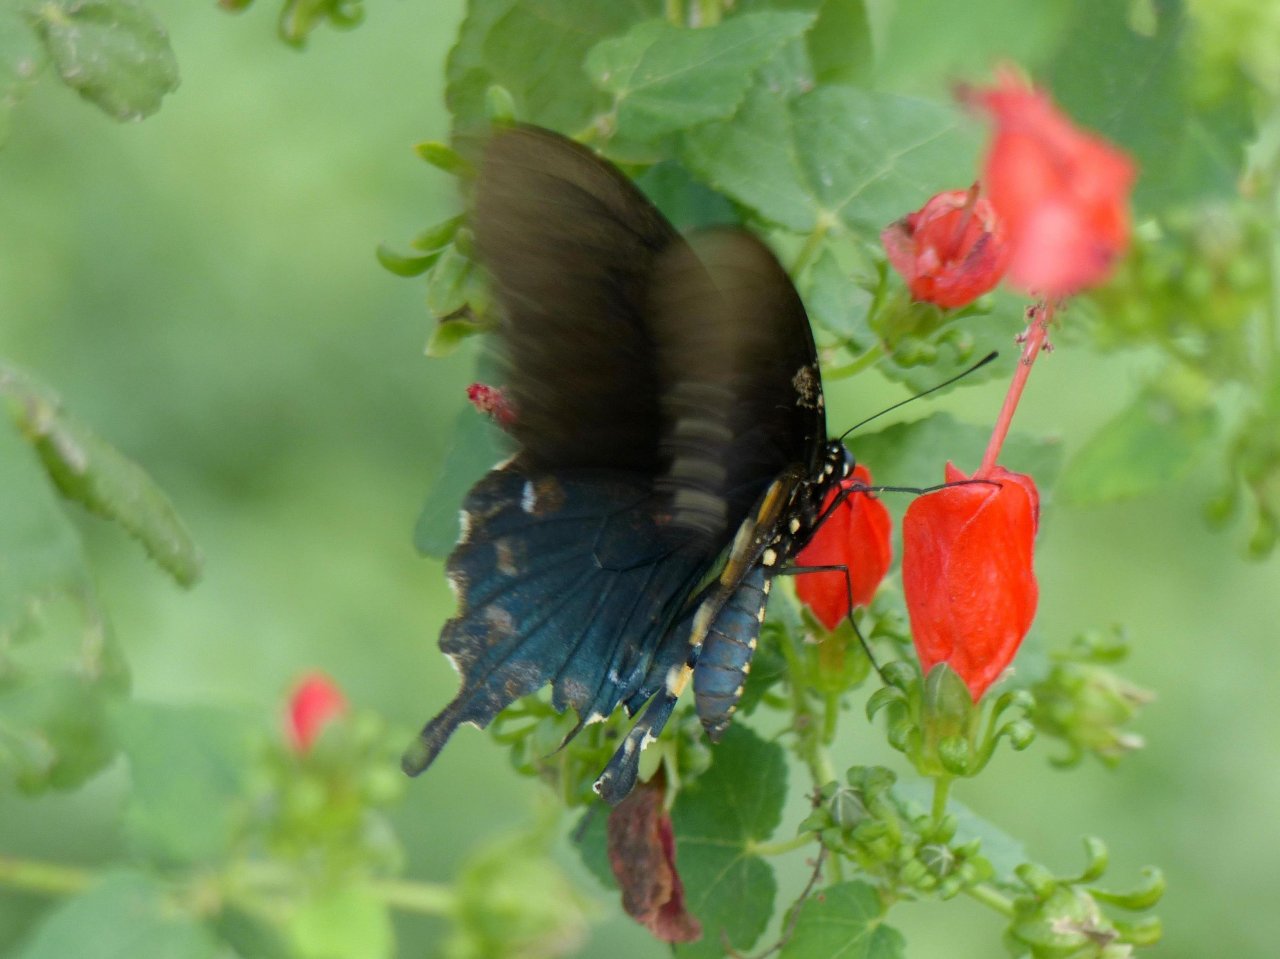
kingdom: Animalia
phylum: Arthropoda
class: Insecta
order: Lepidoptera
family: Papilionidae
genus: Battus
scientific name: Battus philenor
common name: Pipevine Swallowtail
